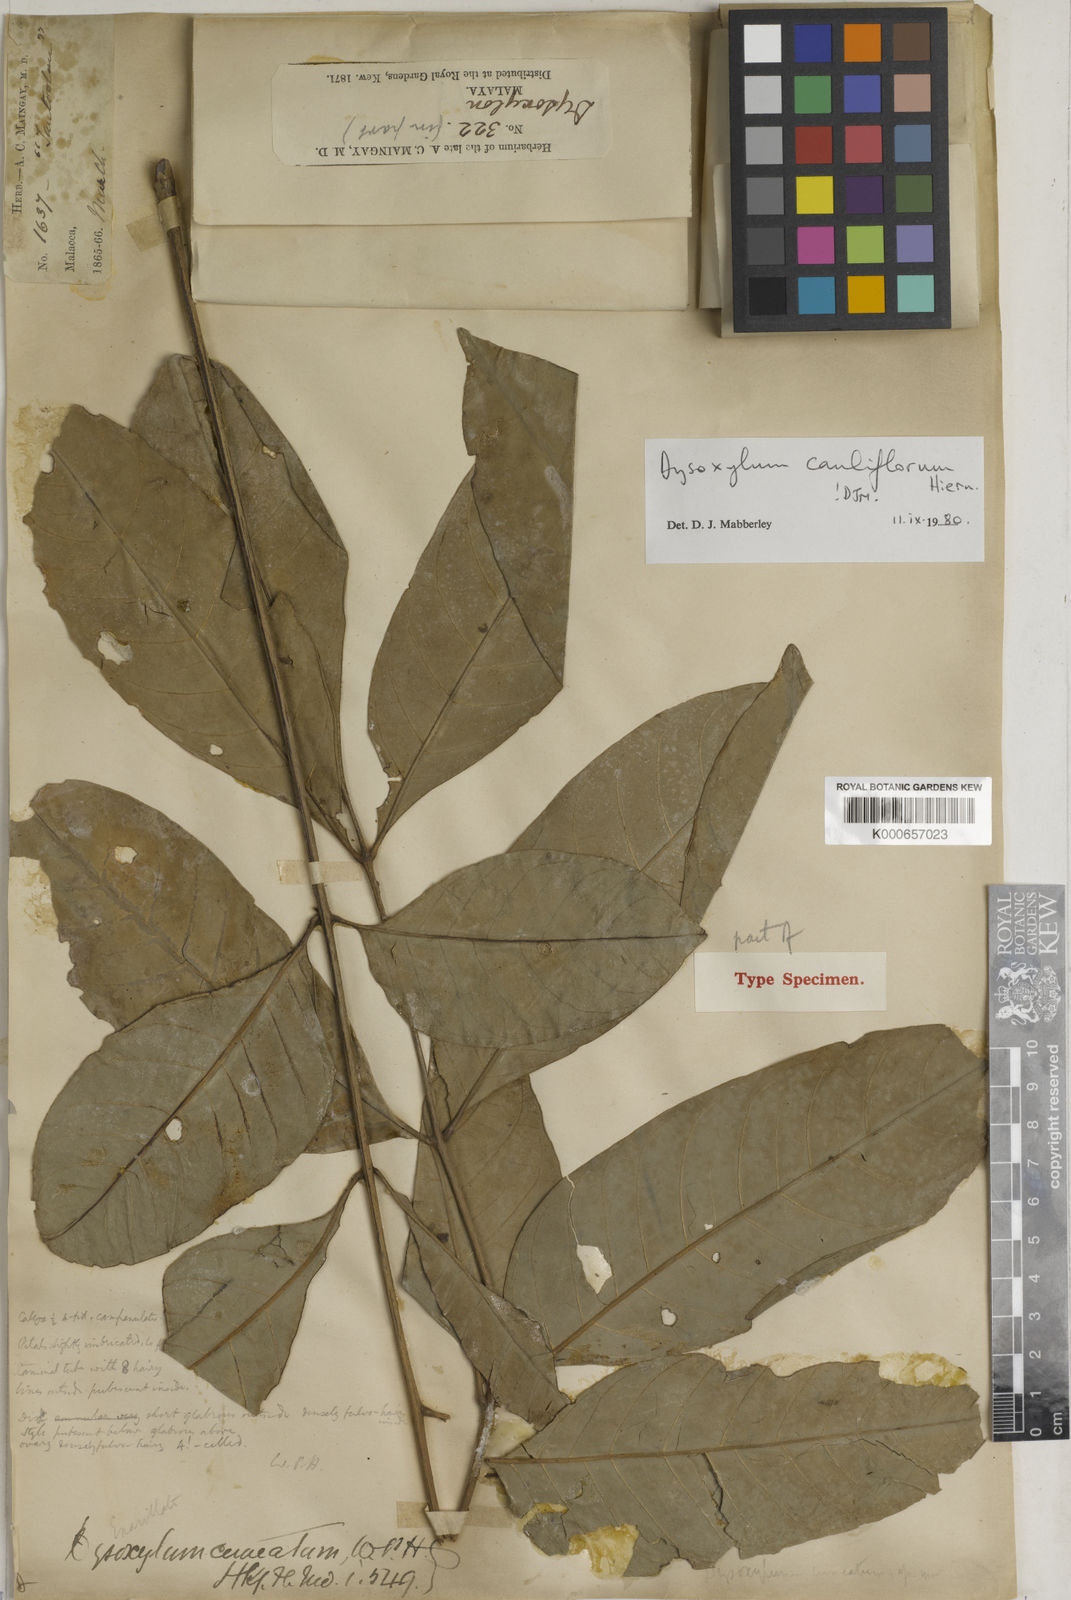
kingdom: Plantae
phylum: Tracheophyta
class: Magnoliopsida
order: Sapindales
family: Meliaceae
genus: Epicharis
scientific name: Epicharis cuneata
